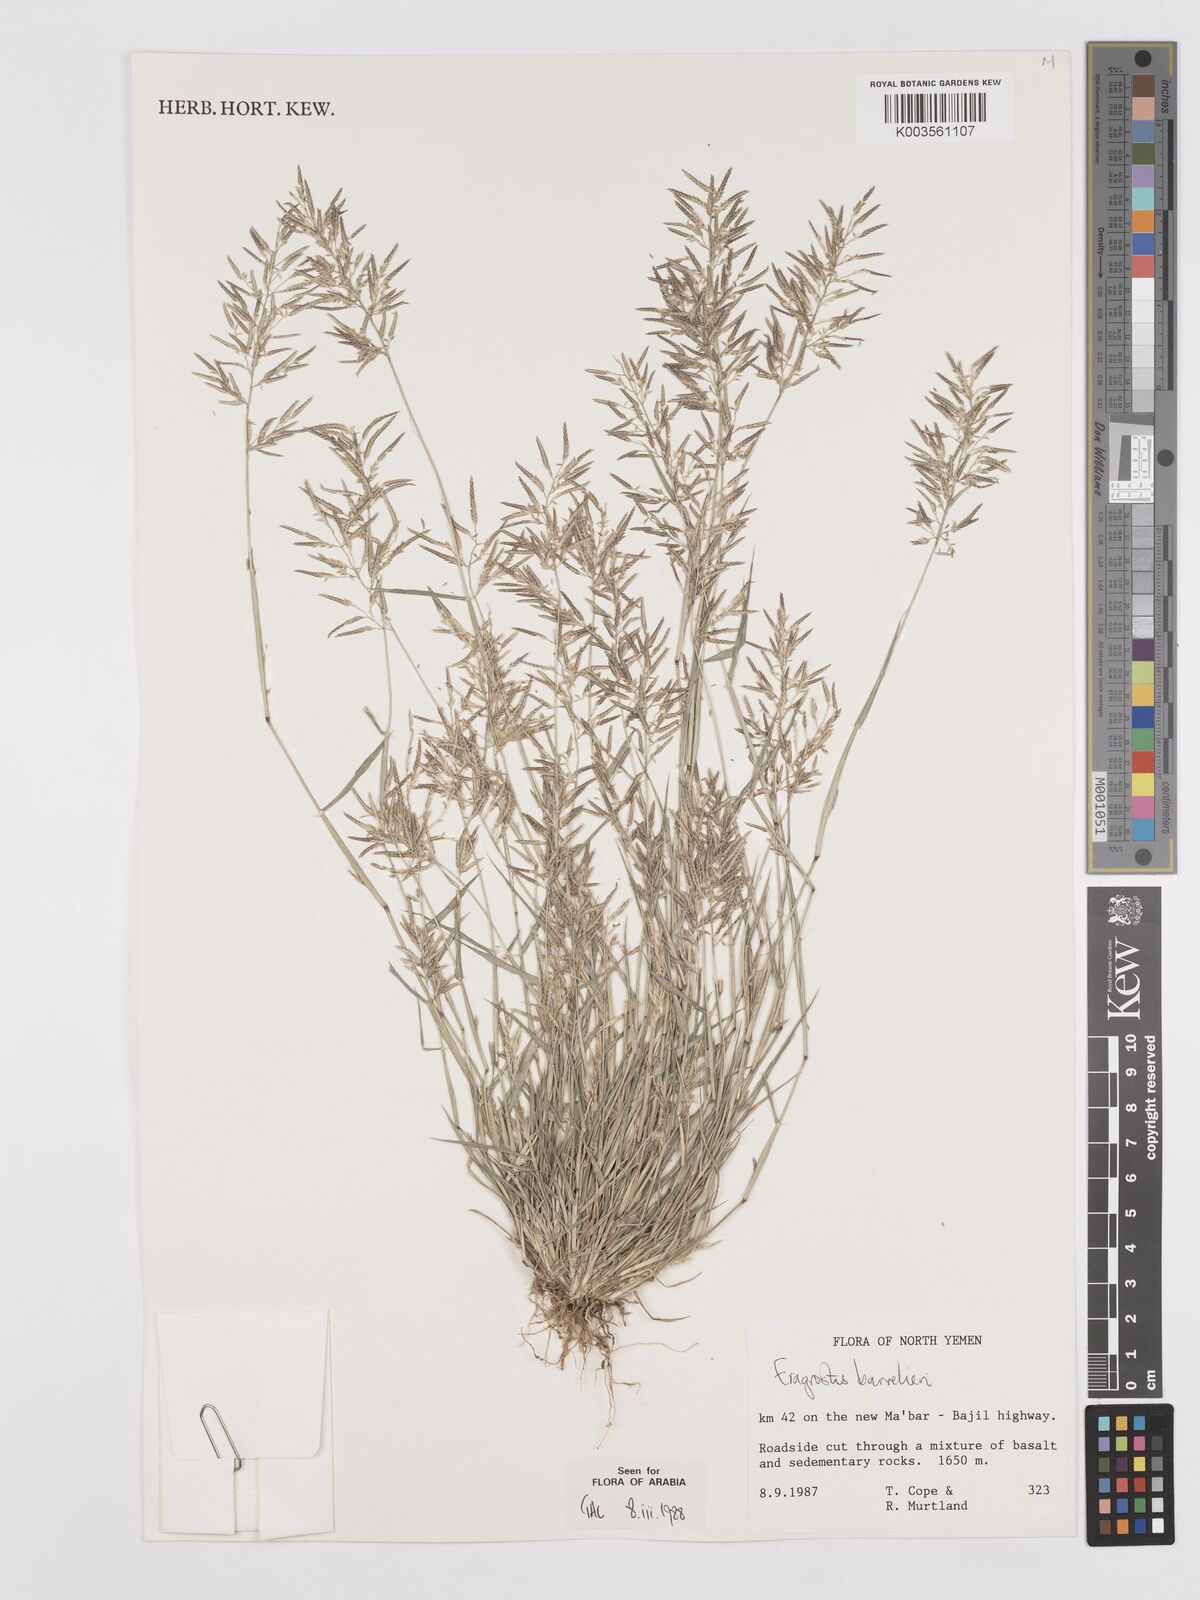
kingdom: Plantae
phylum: Tracheophyta
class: Liliopsida
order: Poales
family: Poaceae
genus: Eragrostis
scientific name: Eragrostis barrelieri
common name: Mediterranean lovegrass
